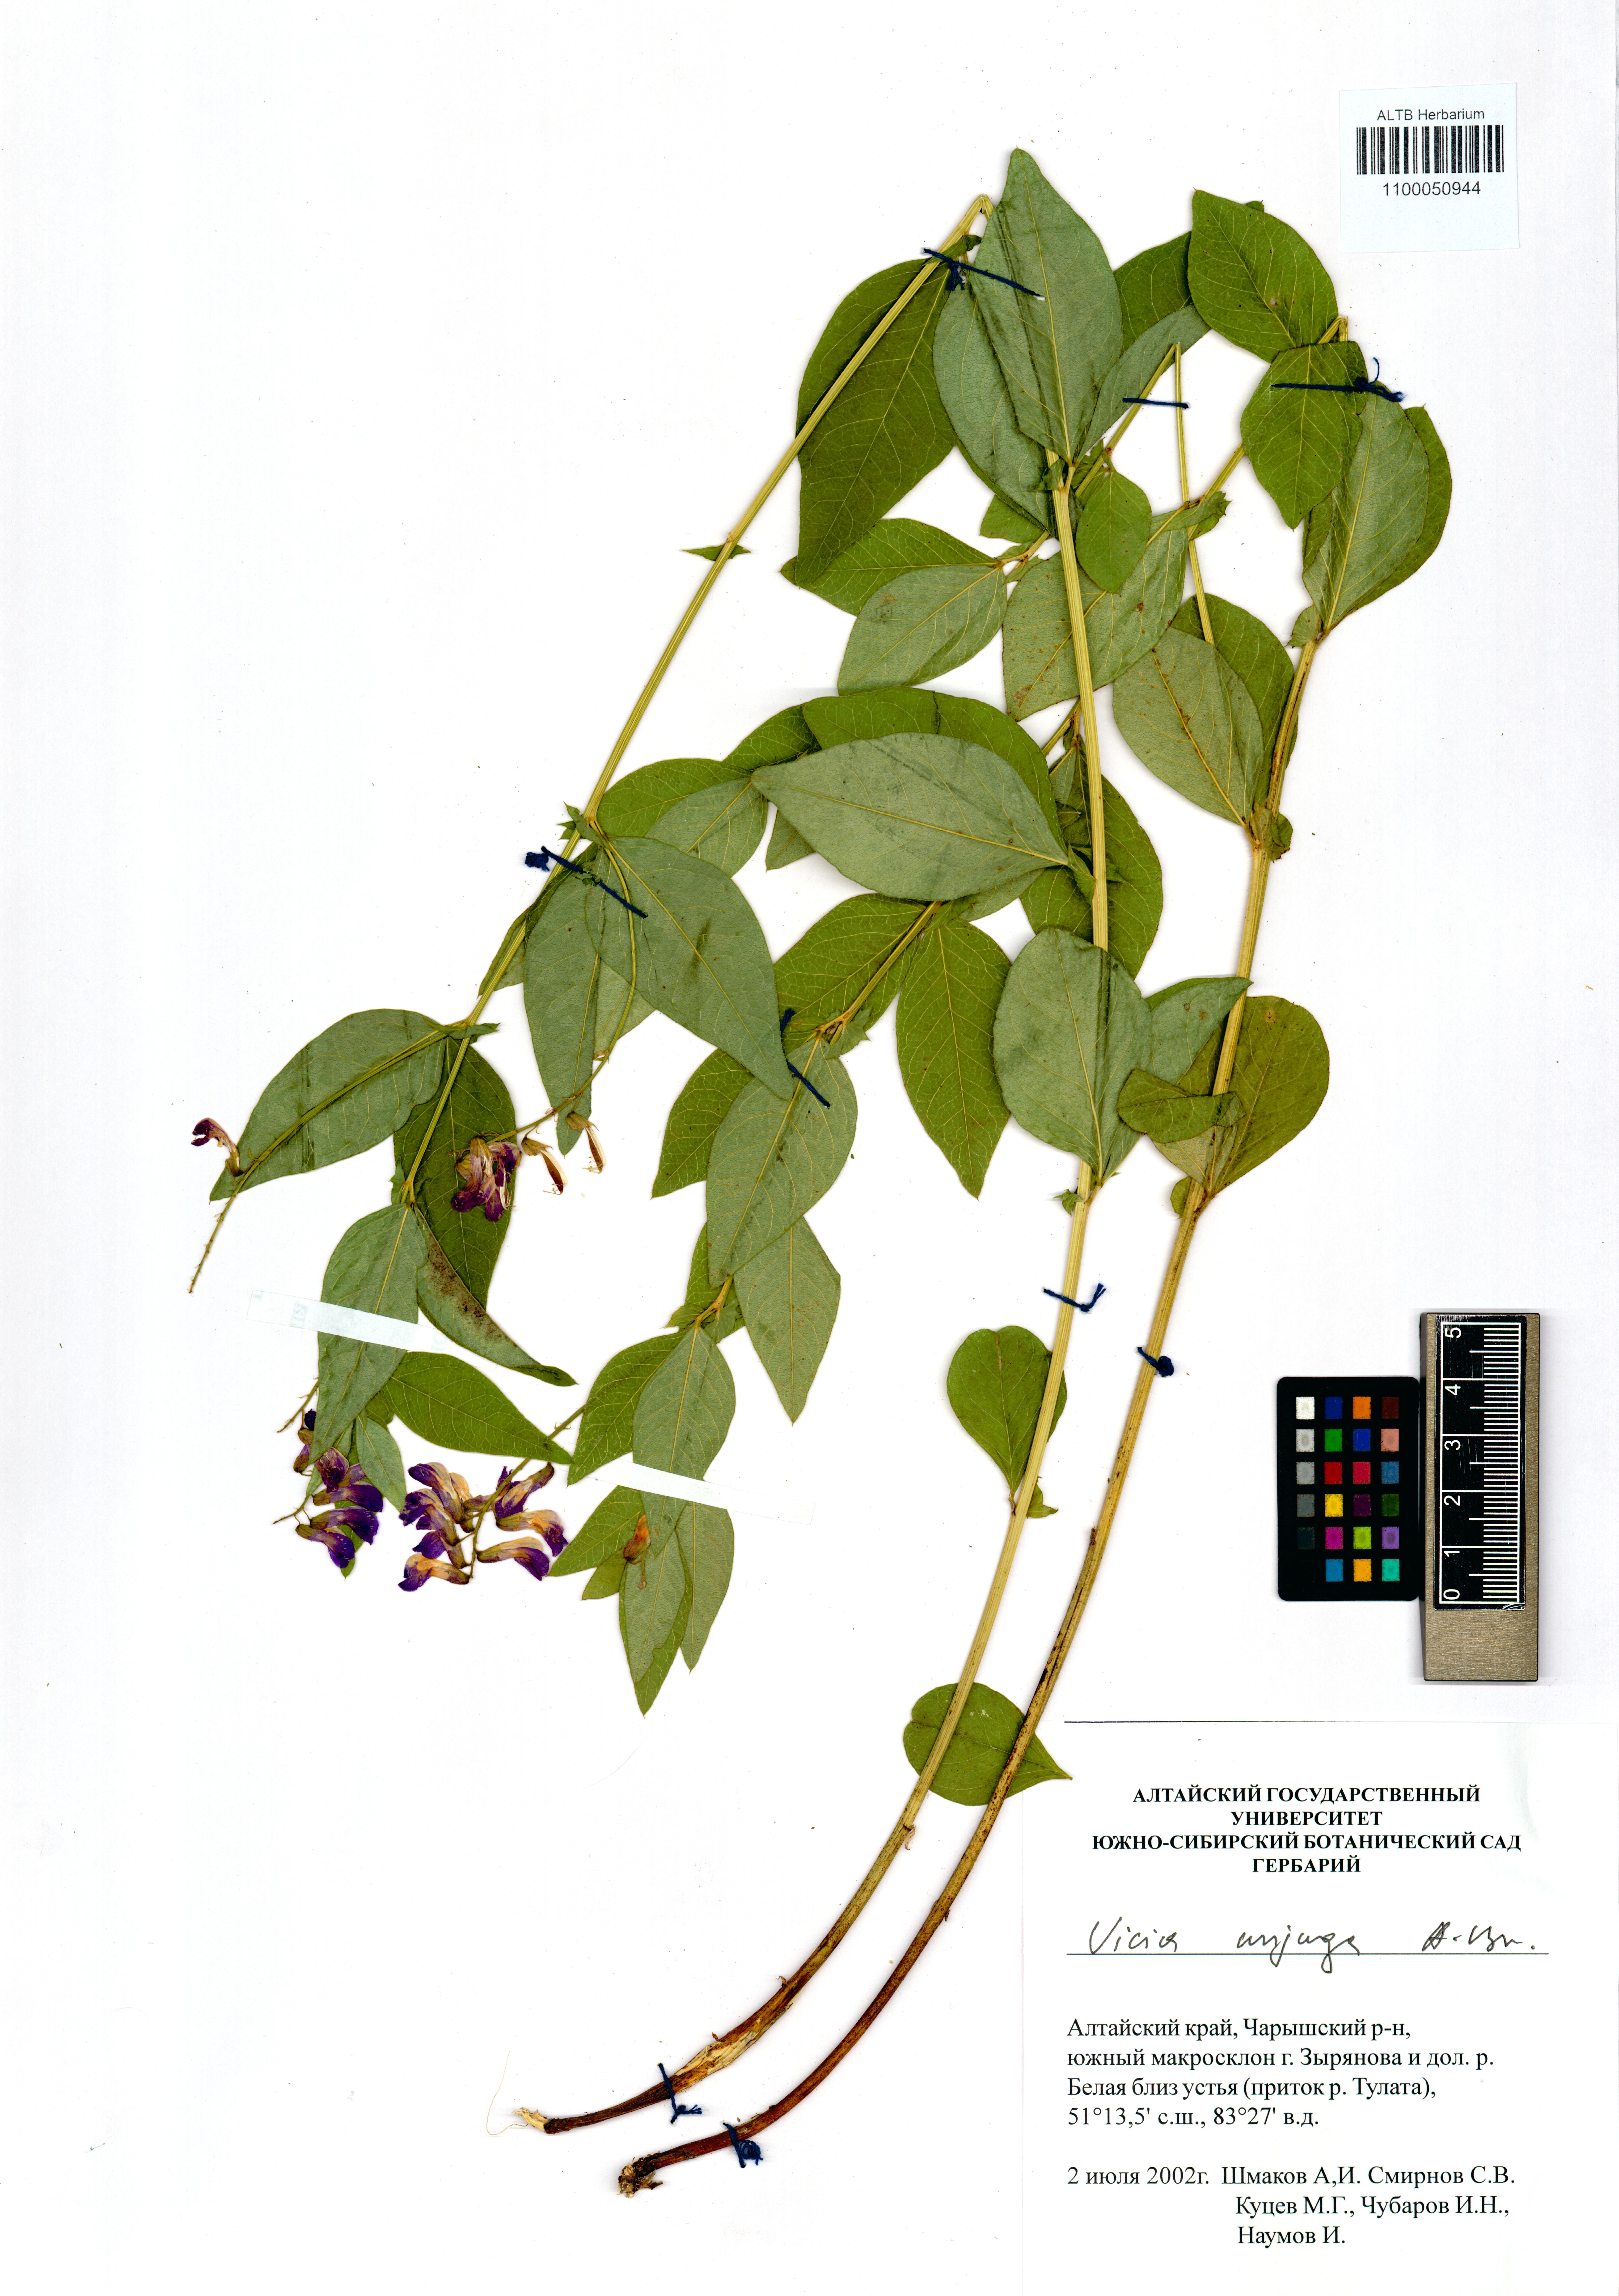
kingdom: Plantae
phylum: Tracheophyta
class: Magnoliopsida
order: Fabales
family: Fabaceae
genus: Vicia
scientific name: Vicia unijuga
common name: Two-leaf vetch
